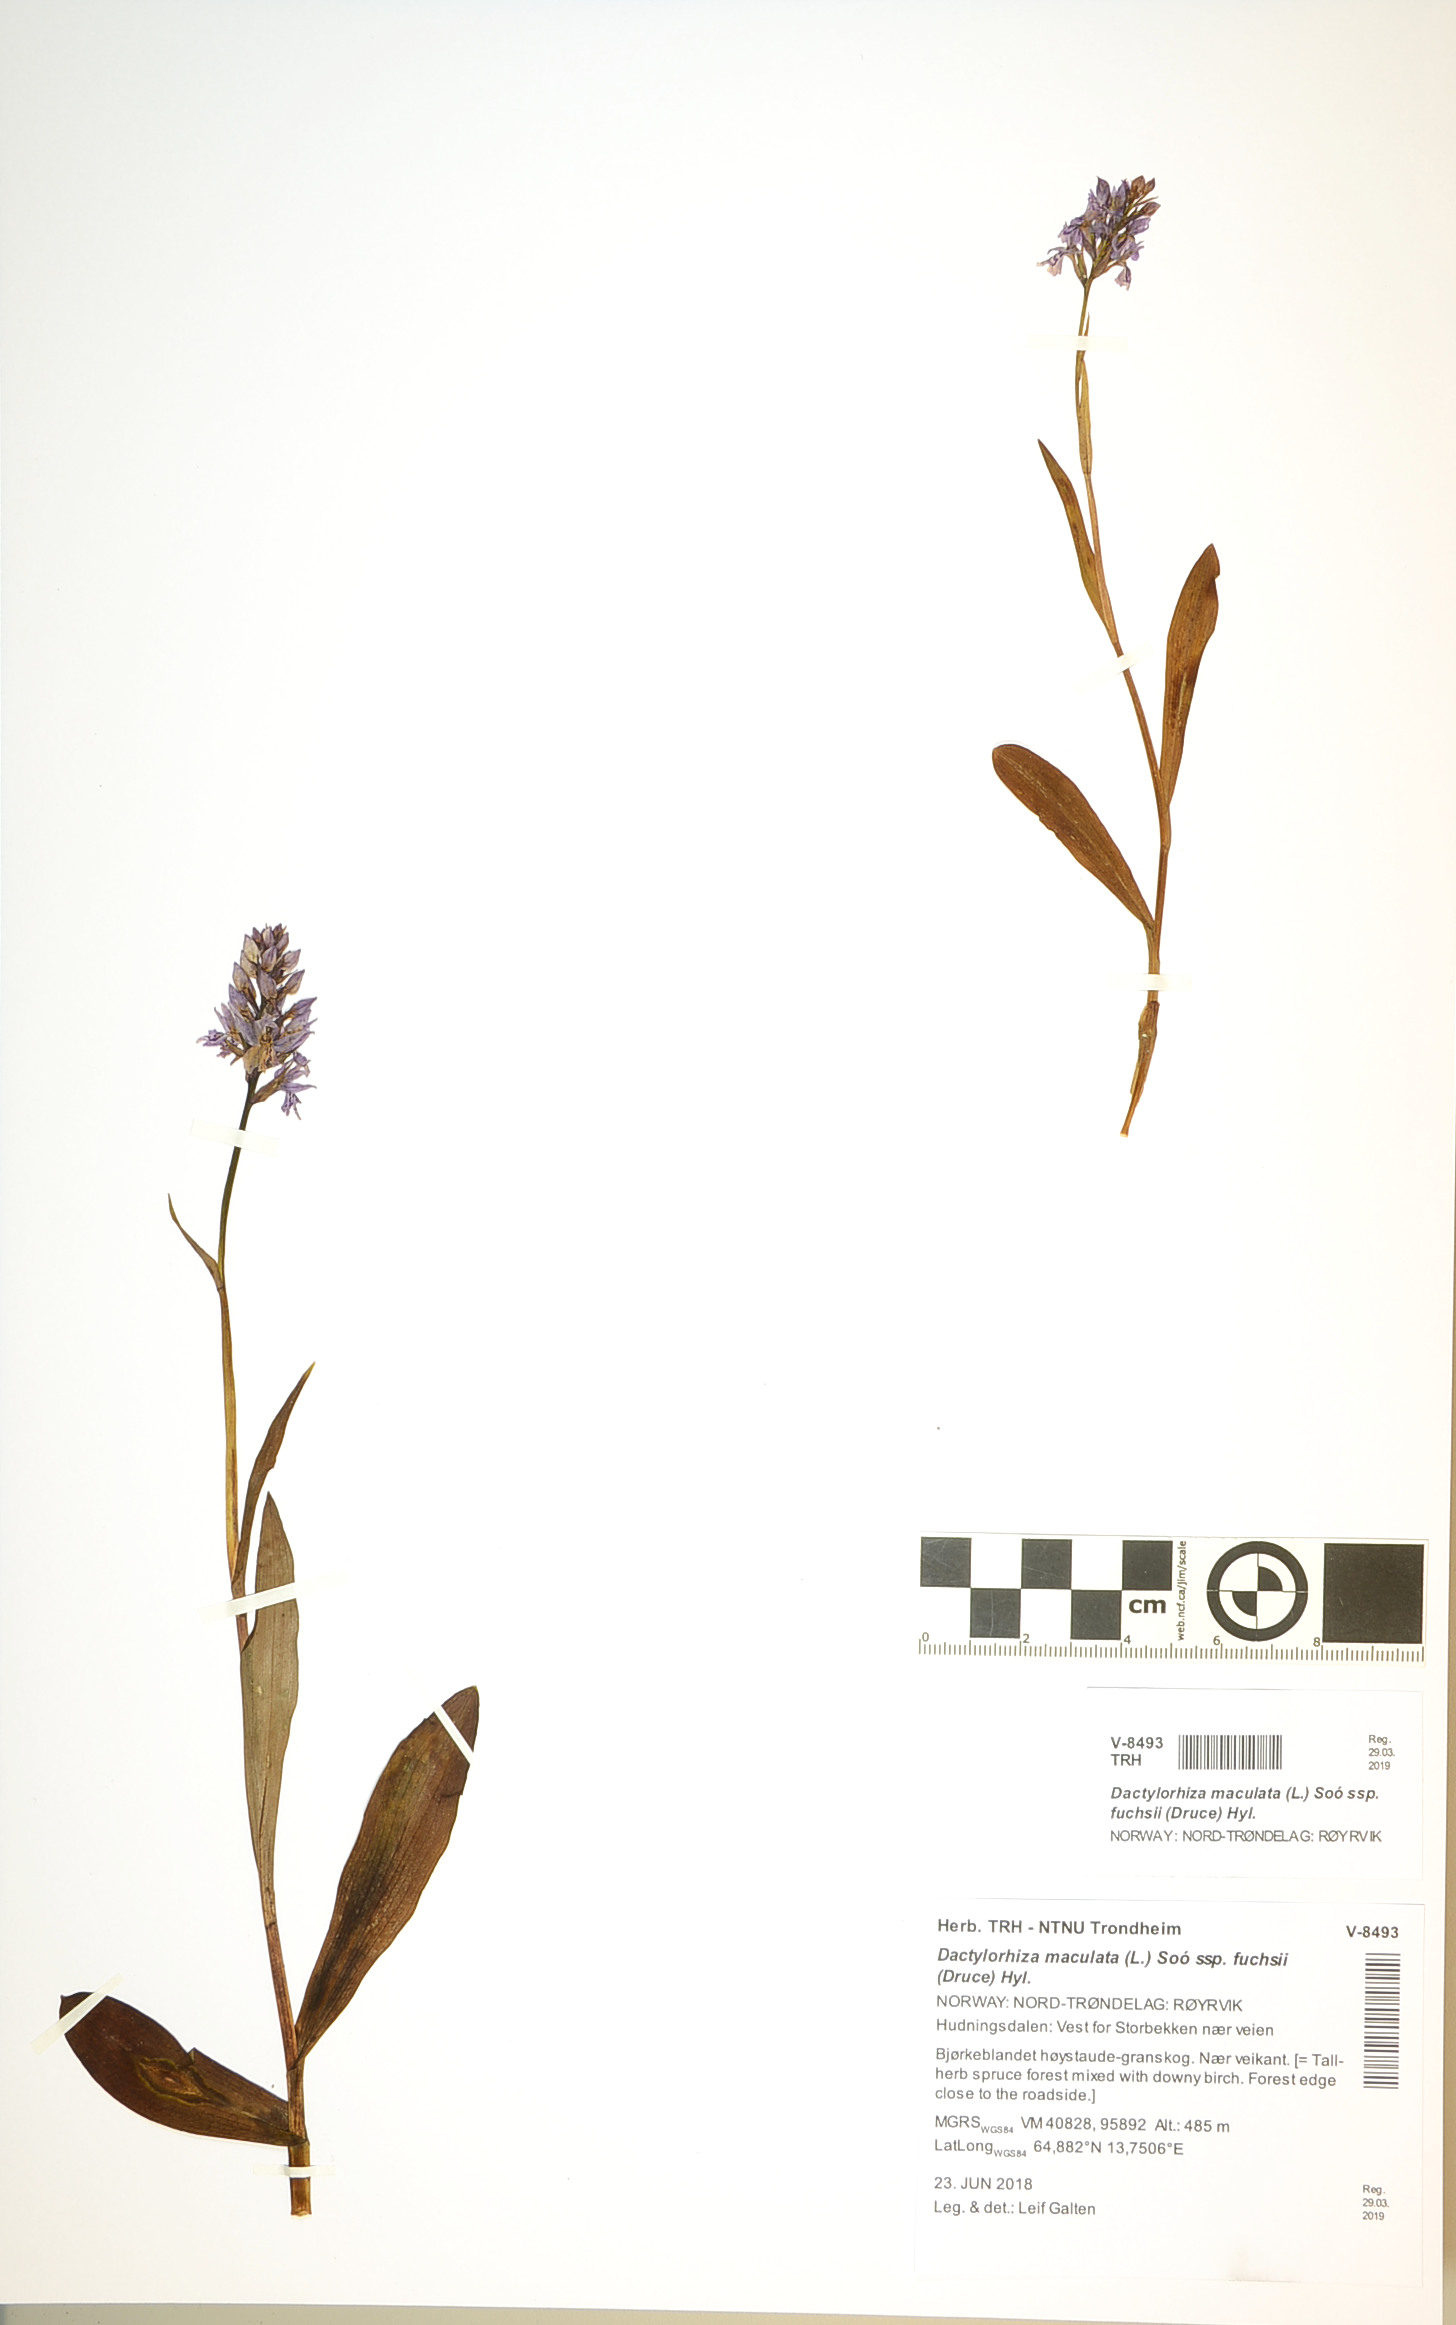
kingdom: Plantae
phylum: Tracheophyta
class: Liliopsida
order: Asparagales
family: Orchidaceae
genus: Dactylorhiza
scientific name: Dactylorhiza maculata
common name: Heath spotted-orchid
